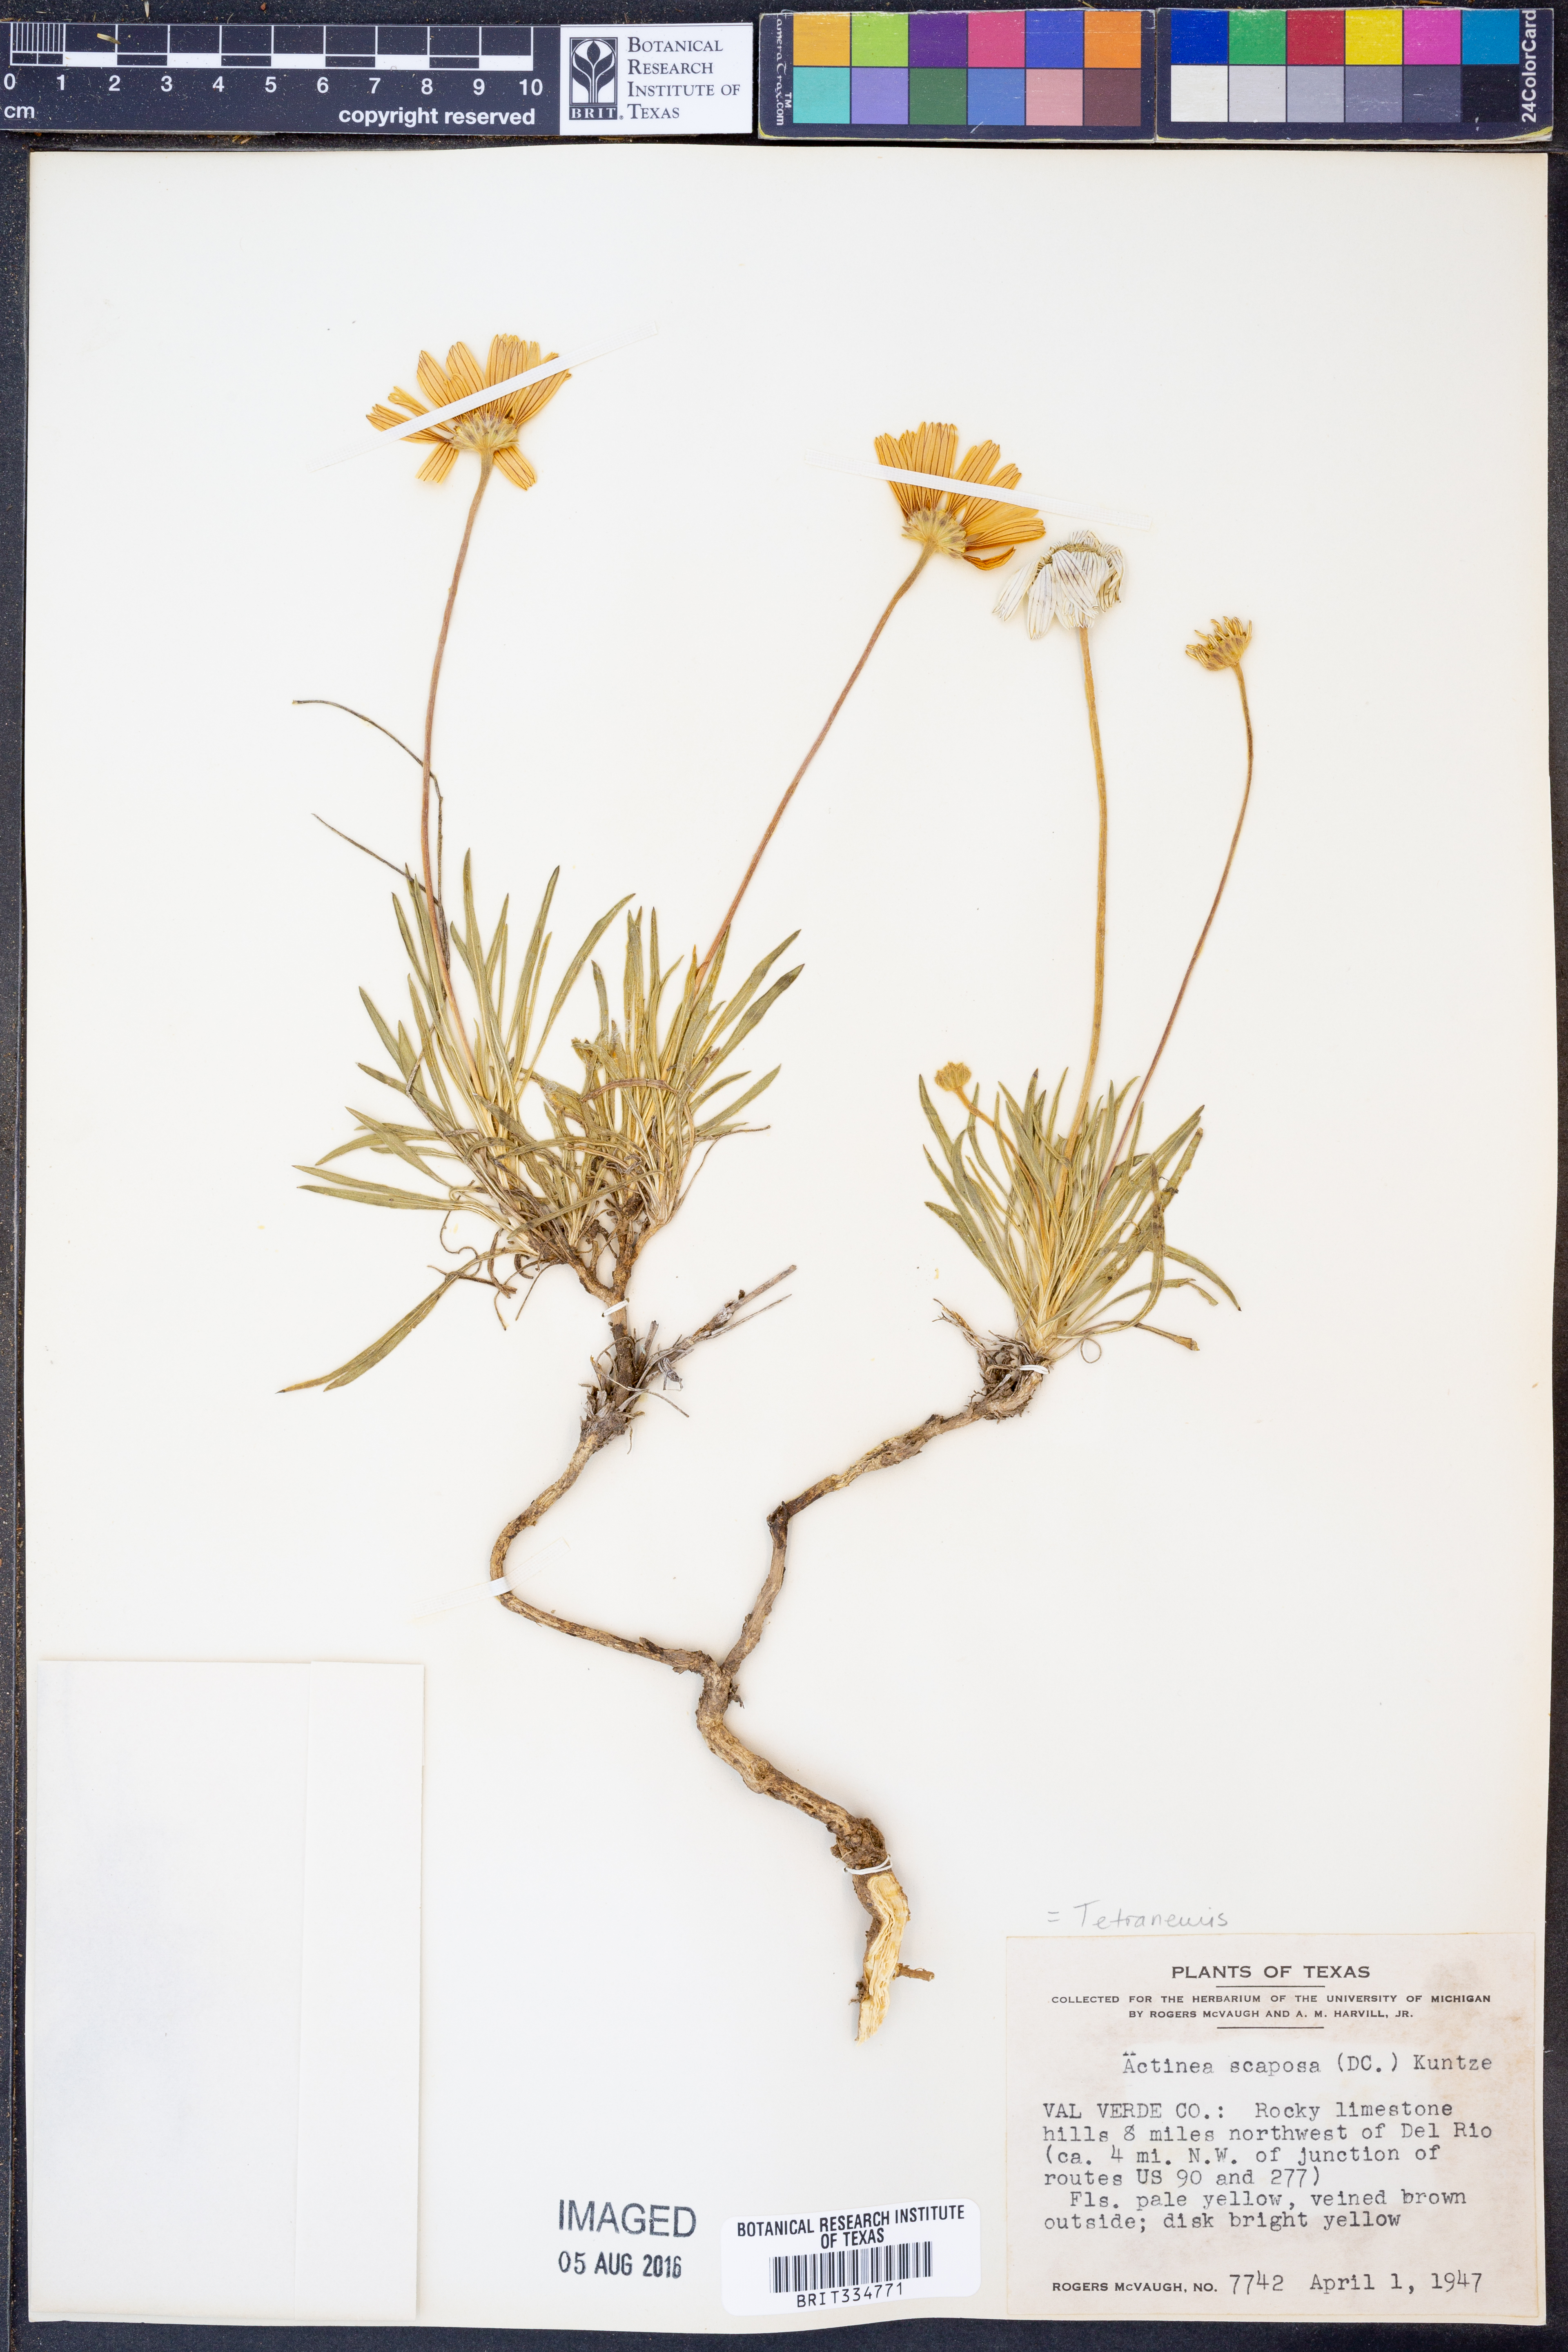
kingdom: Plantae
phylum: Tracheophyta
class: Magnoliopsida
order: Asterales
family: Asteraceae
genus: Tetraneuris
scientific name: Tetraneuris scaposa
